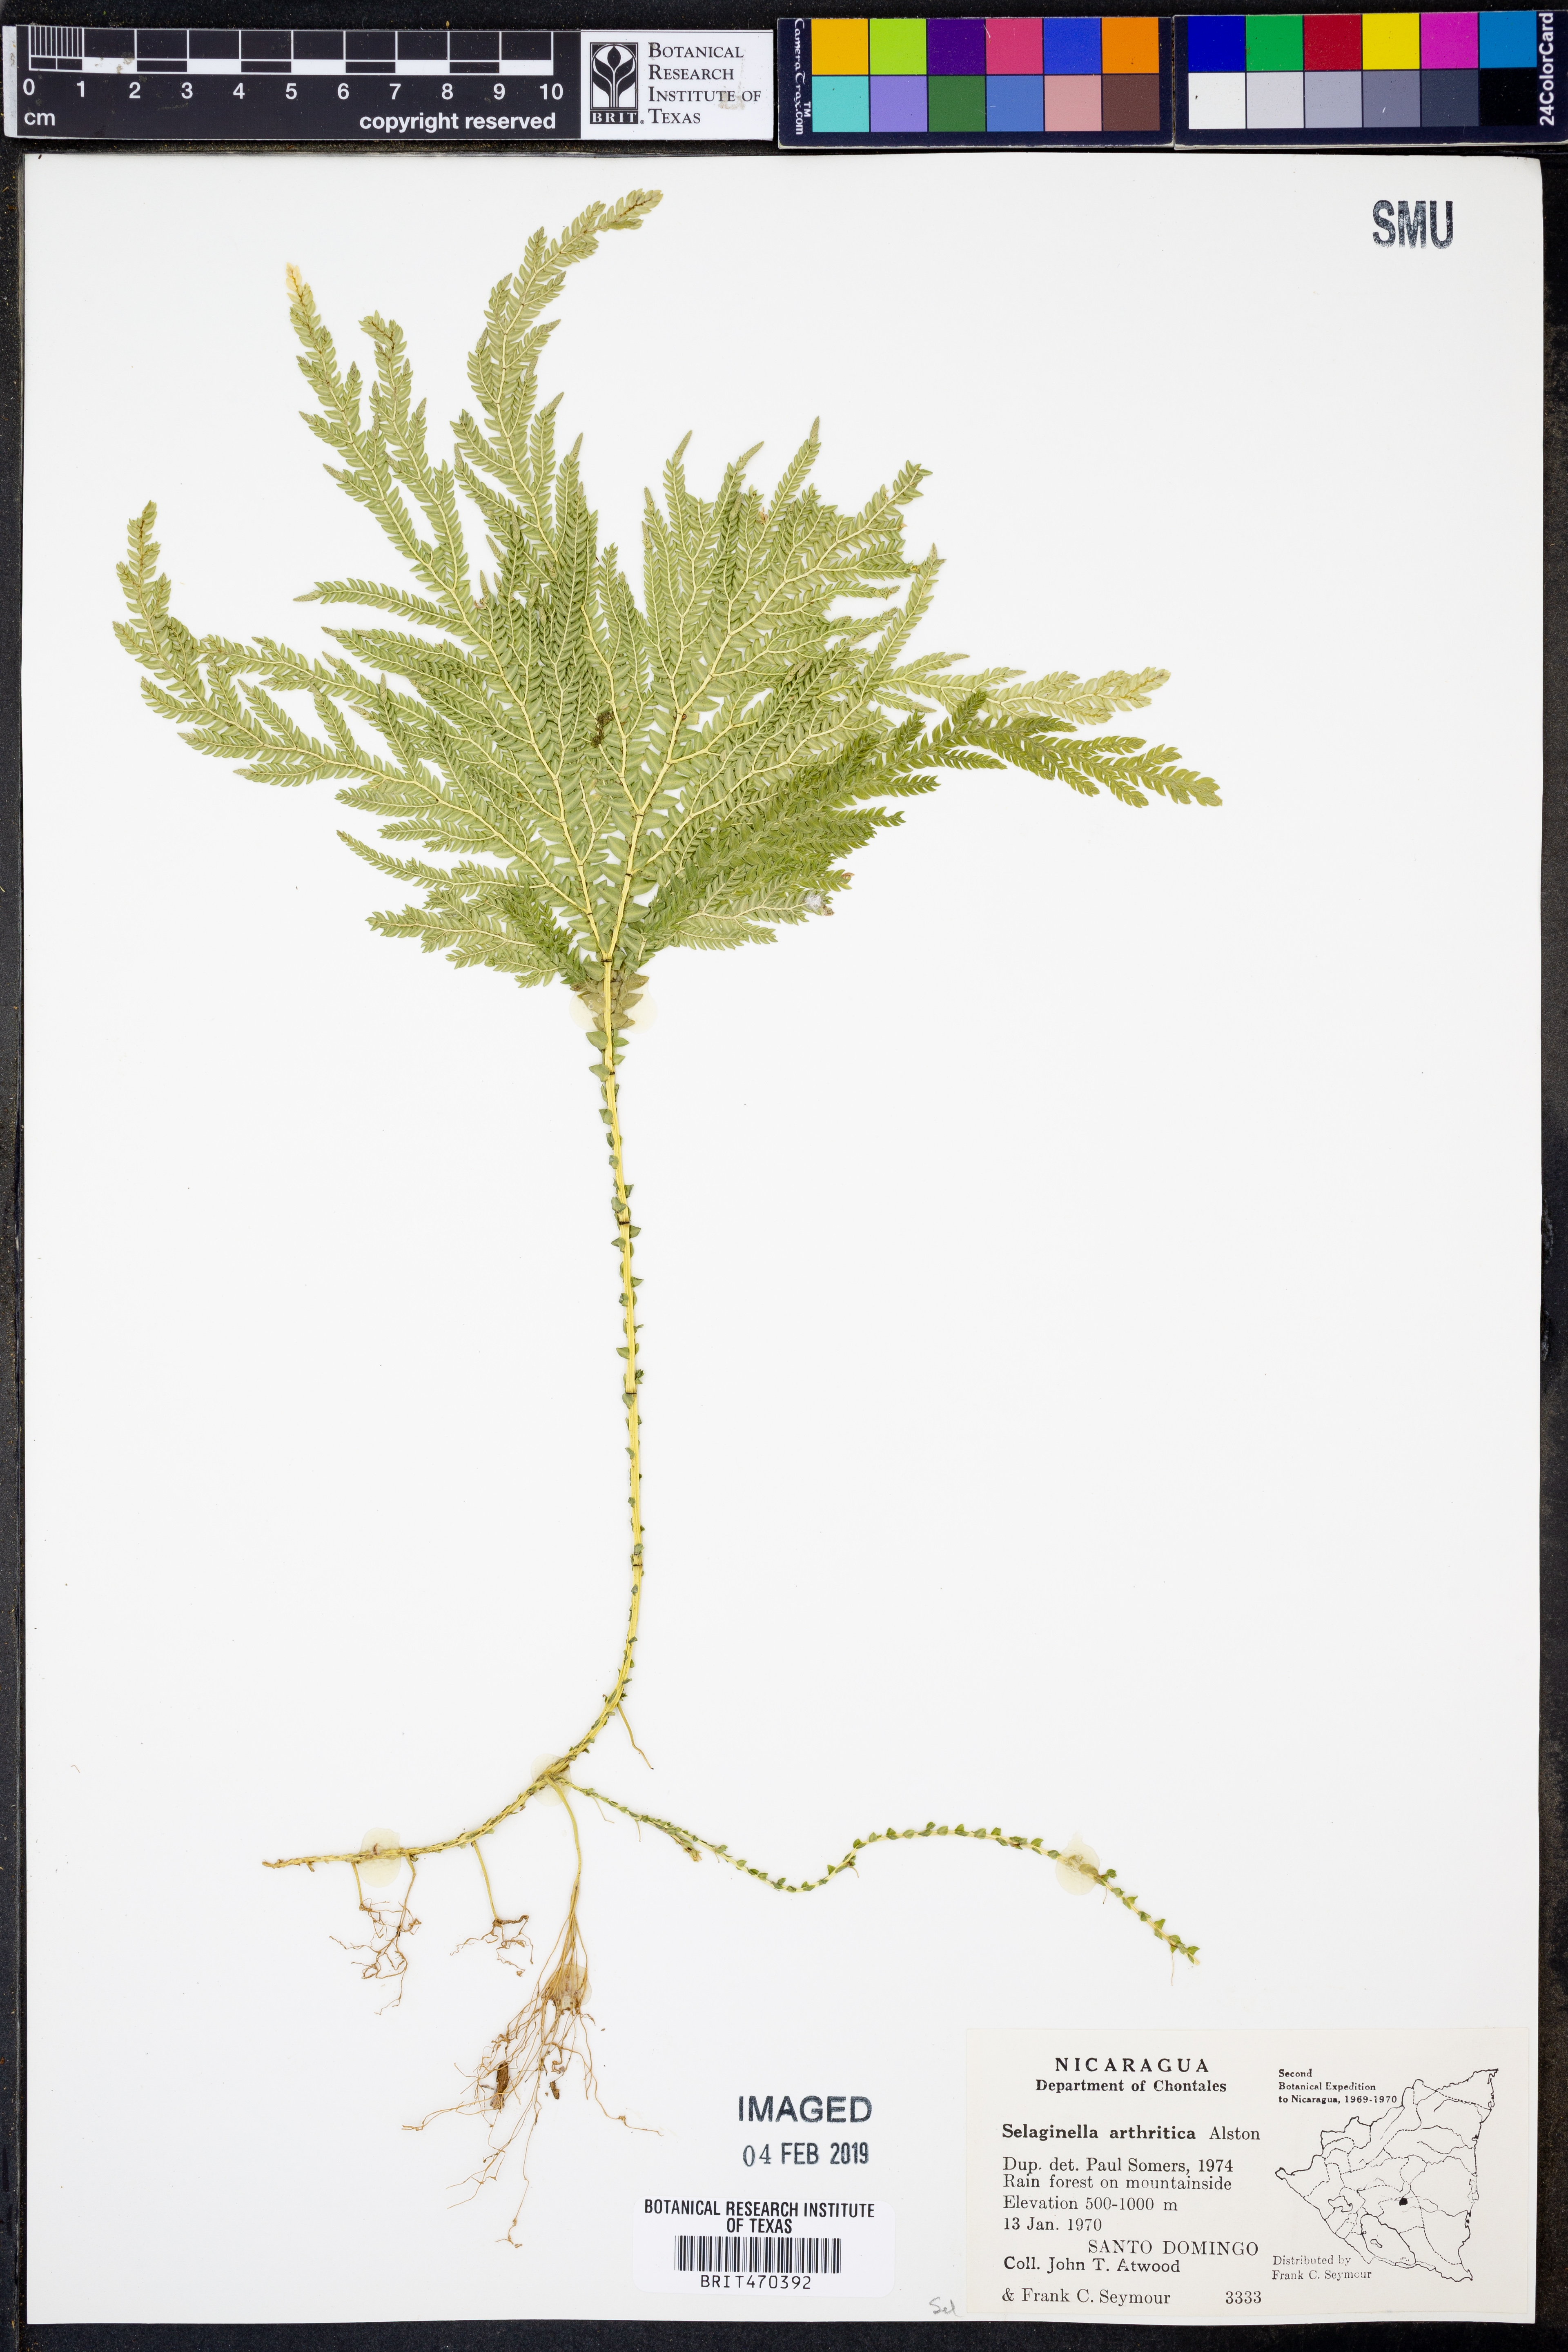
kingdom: Plantae
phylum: Tracheophyta
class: Lycopodiopsida
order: Selaginellales
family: Selaginellaceae
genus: Selaginella
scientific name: Selaginella arthritica
